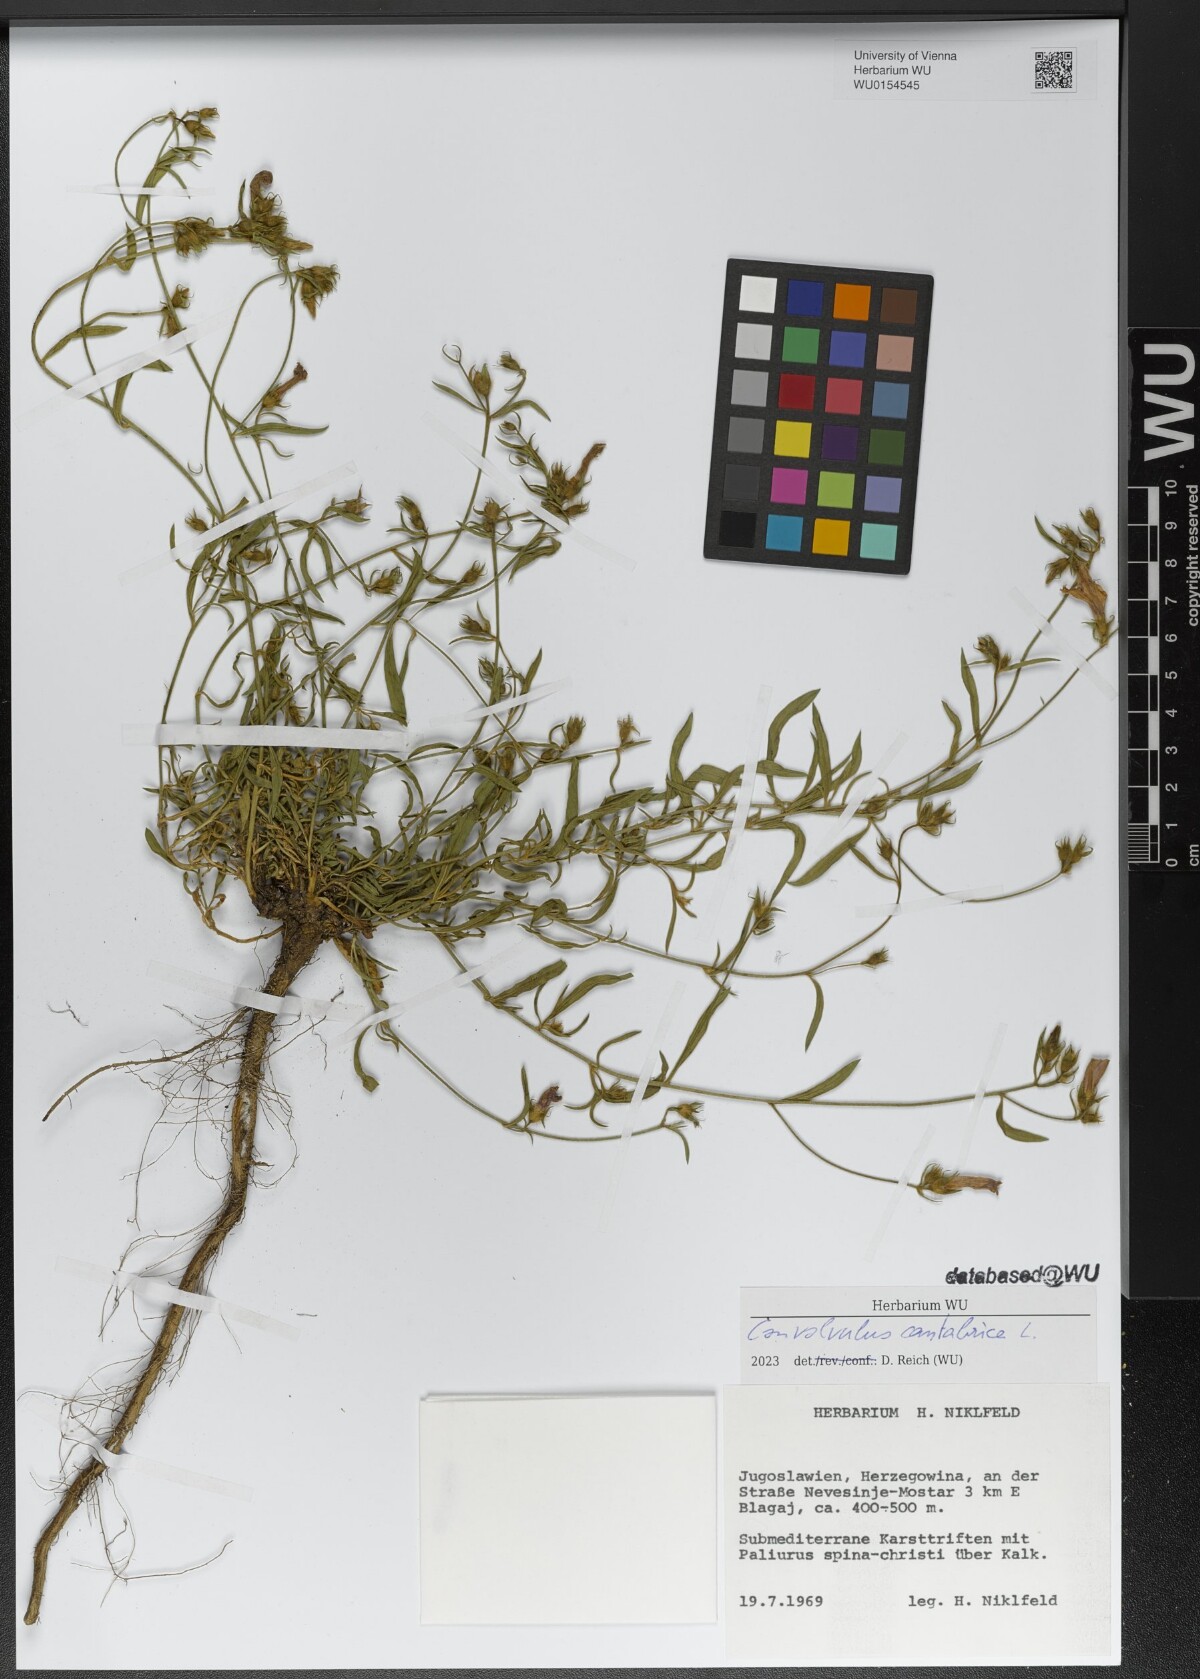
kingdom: Plantae
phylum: Tracheophyta
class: Magnoliopsida
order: Solanales
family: Convolvulaceae
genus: Convolvulus
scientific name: Convolvulus cantabrica
